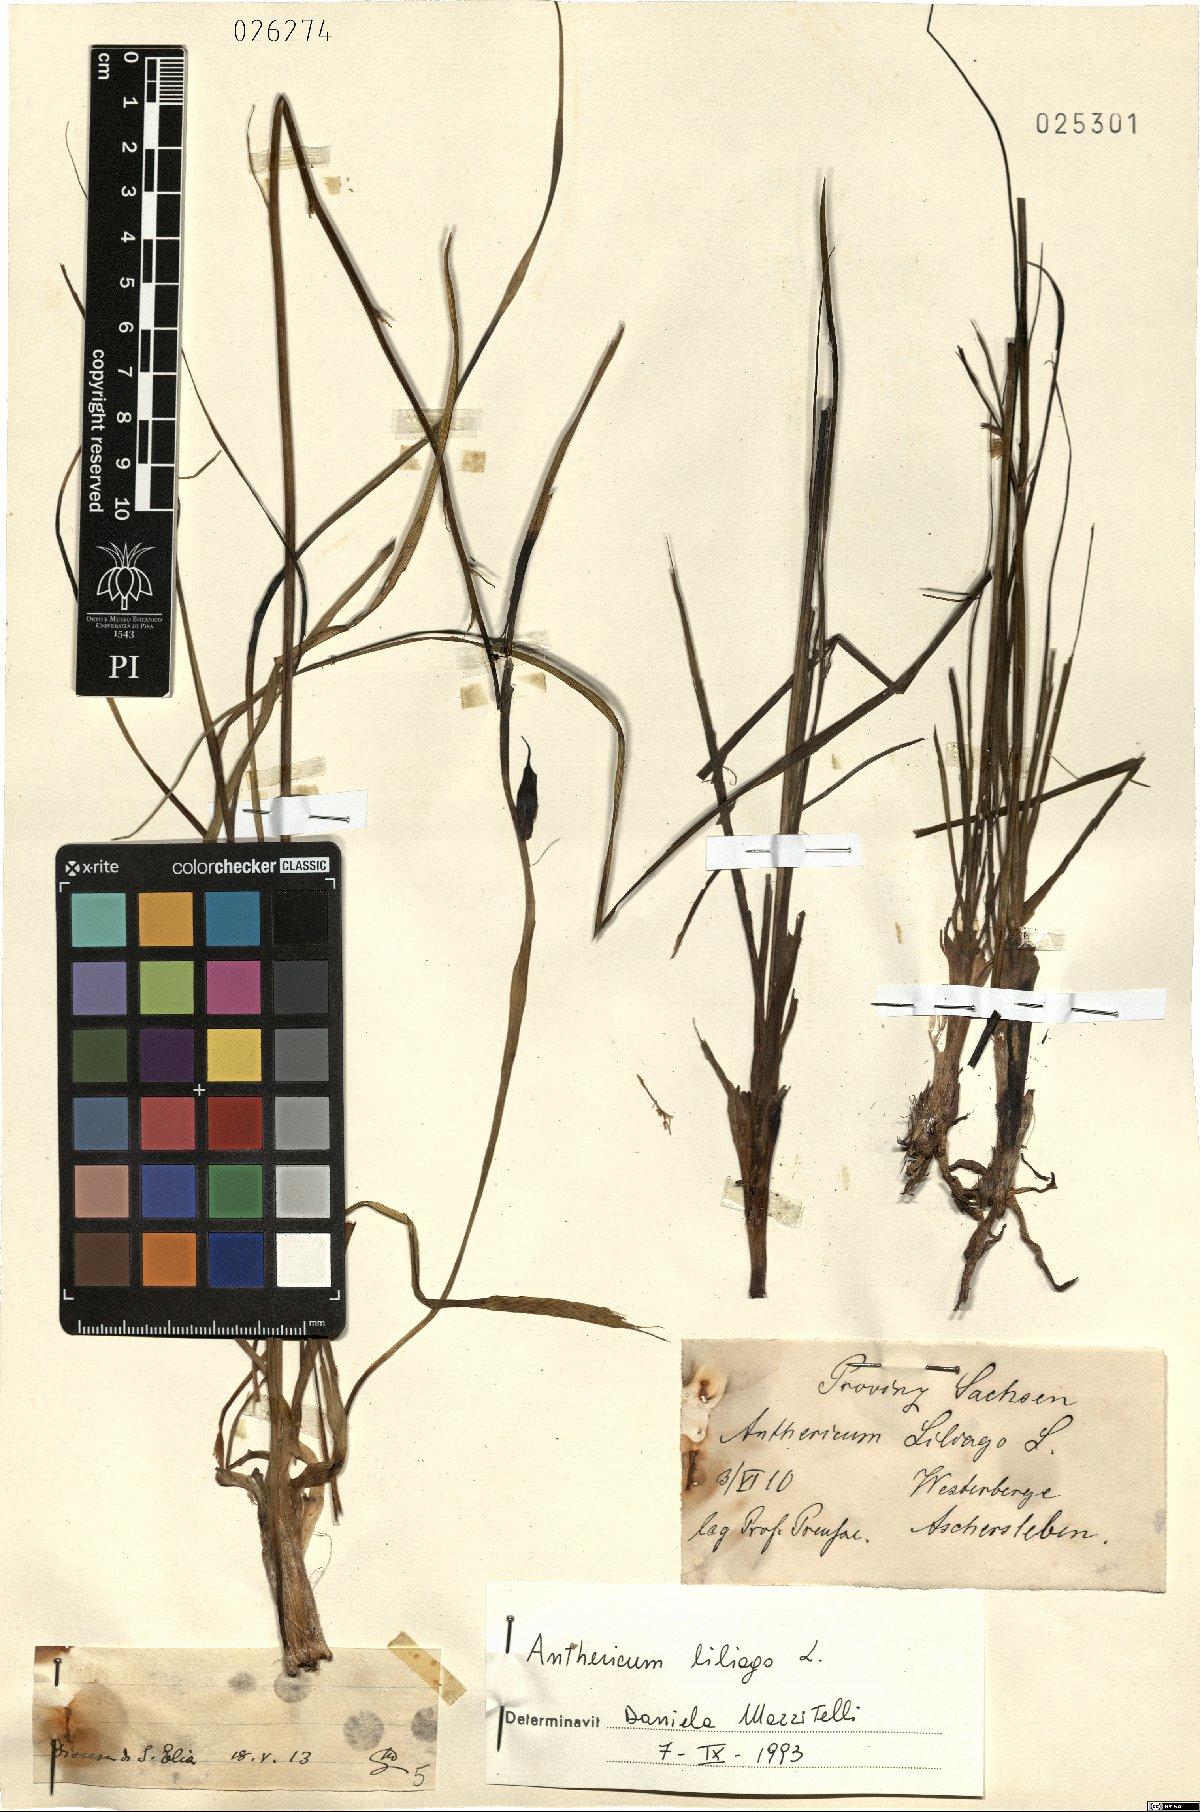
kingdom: Plantae
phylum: Tracheophyta
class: Liliopsida
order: Asparagales
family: Asparagaceae
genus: Anthericum
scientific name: Anthericum liliago
